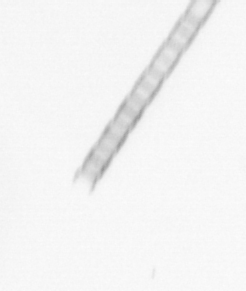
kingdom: Chromista
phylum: Ochrophyta
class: Bacillariophyceae
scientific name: Bacillariophyceae
